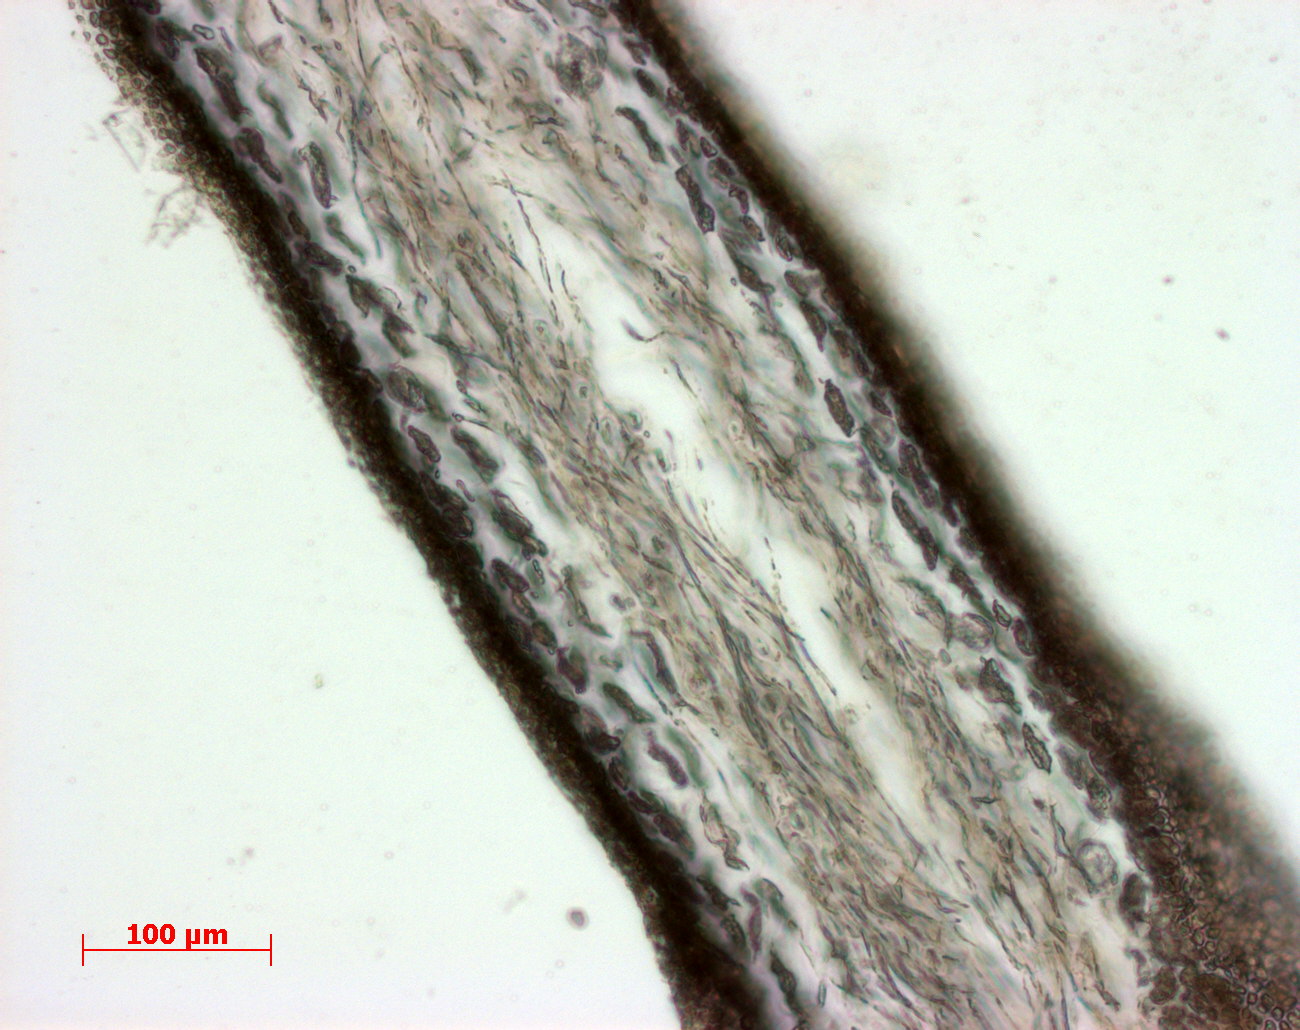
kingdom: Plantae
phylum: Rhodophyta
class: Florideophyceae
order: Gigartinales
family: Kallymeniaceae
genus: Psaromenia
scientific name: Psaromenia berggrenii
